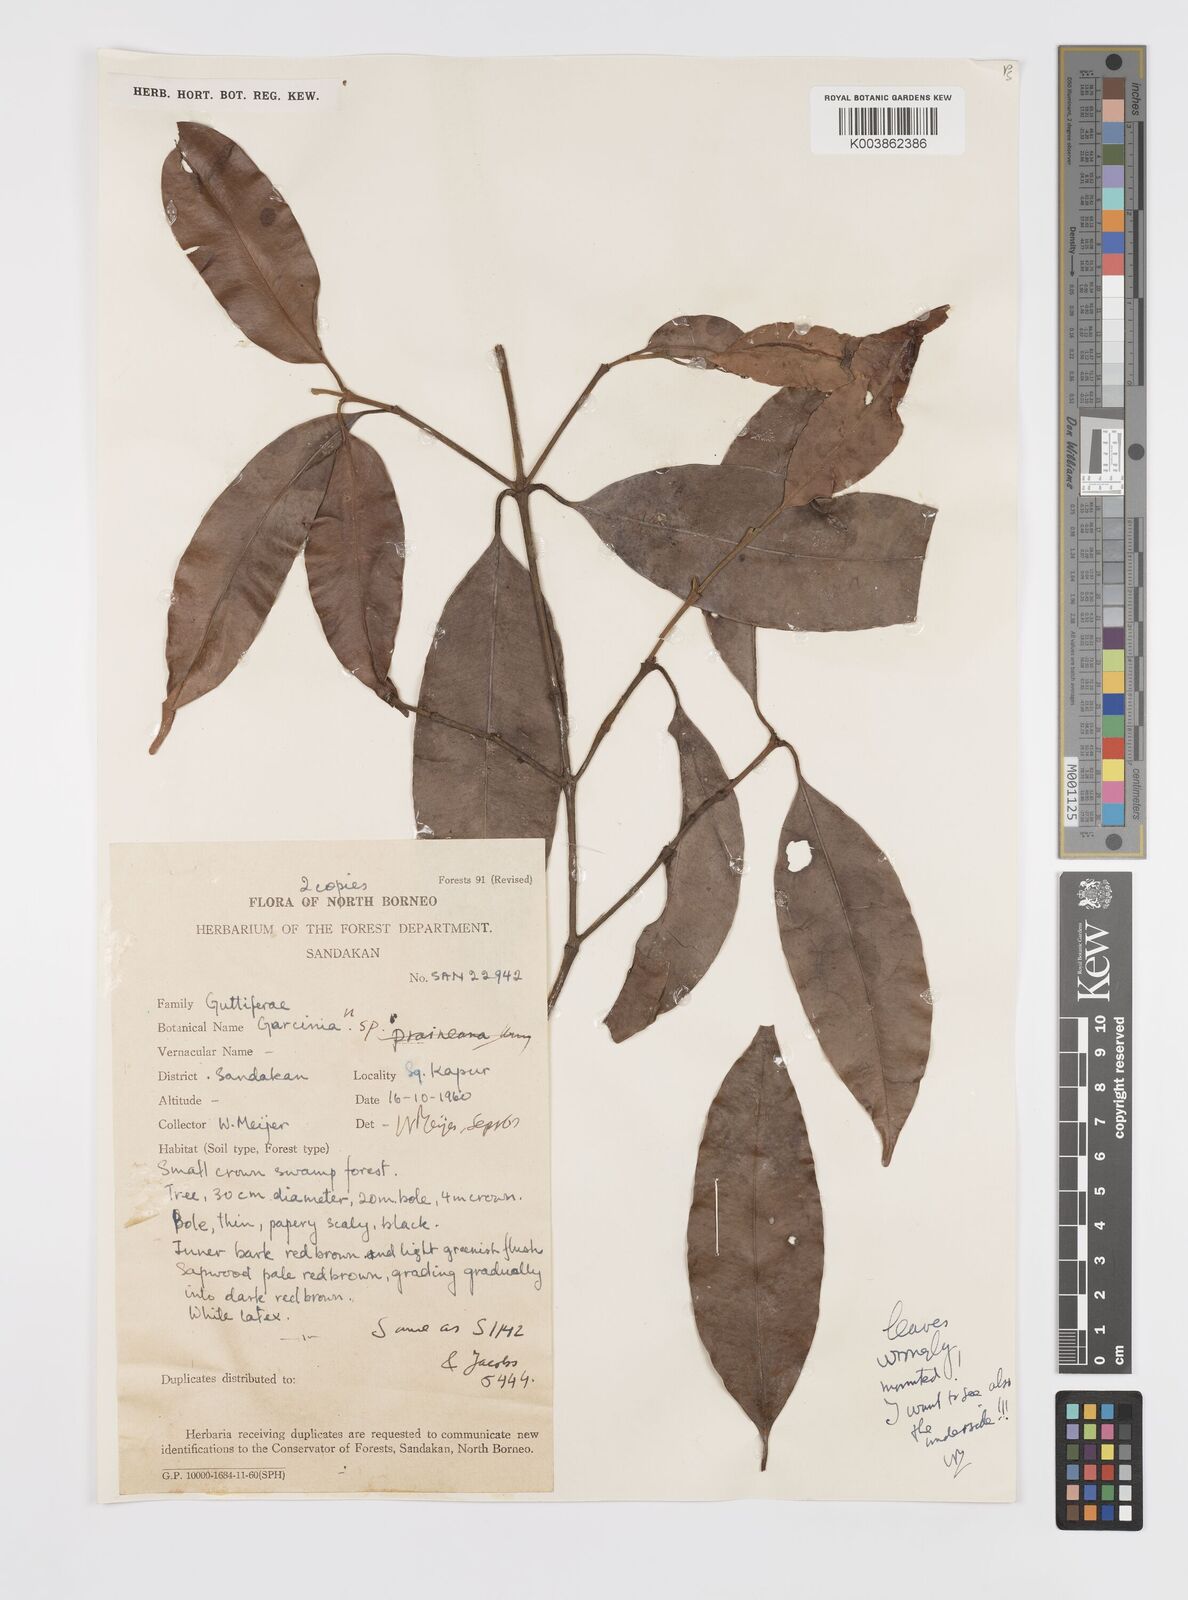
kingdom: Plantae
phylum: Tracheophyta
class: Magnoliopsida
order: Malpighiales
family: Clusiaceae
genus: Garcinia
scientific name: Garcinia
